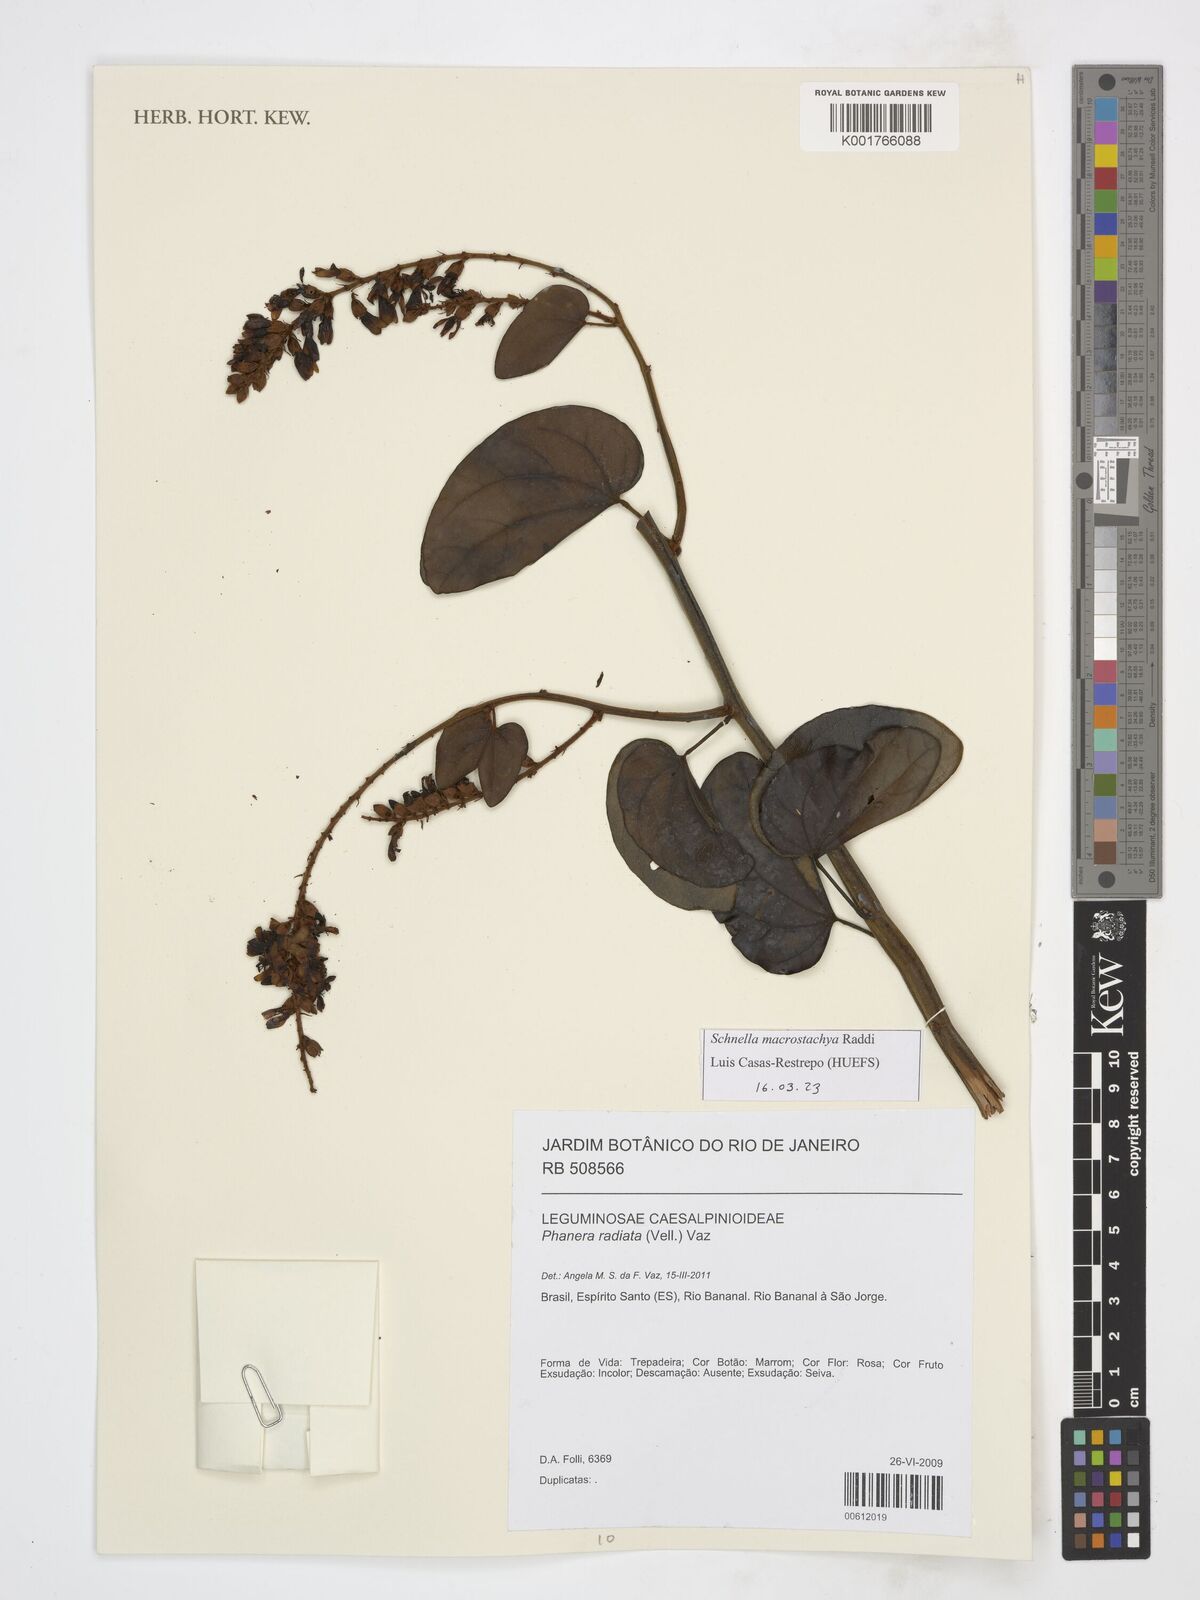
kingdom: Plantae
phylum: Tracheophyta
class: Magnoliopsida
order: Fabales
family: Fabaceae
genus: Schnella
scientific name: Schnella macrostachya
